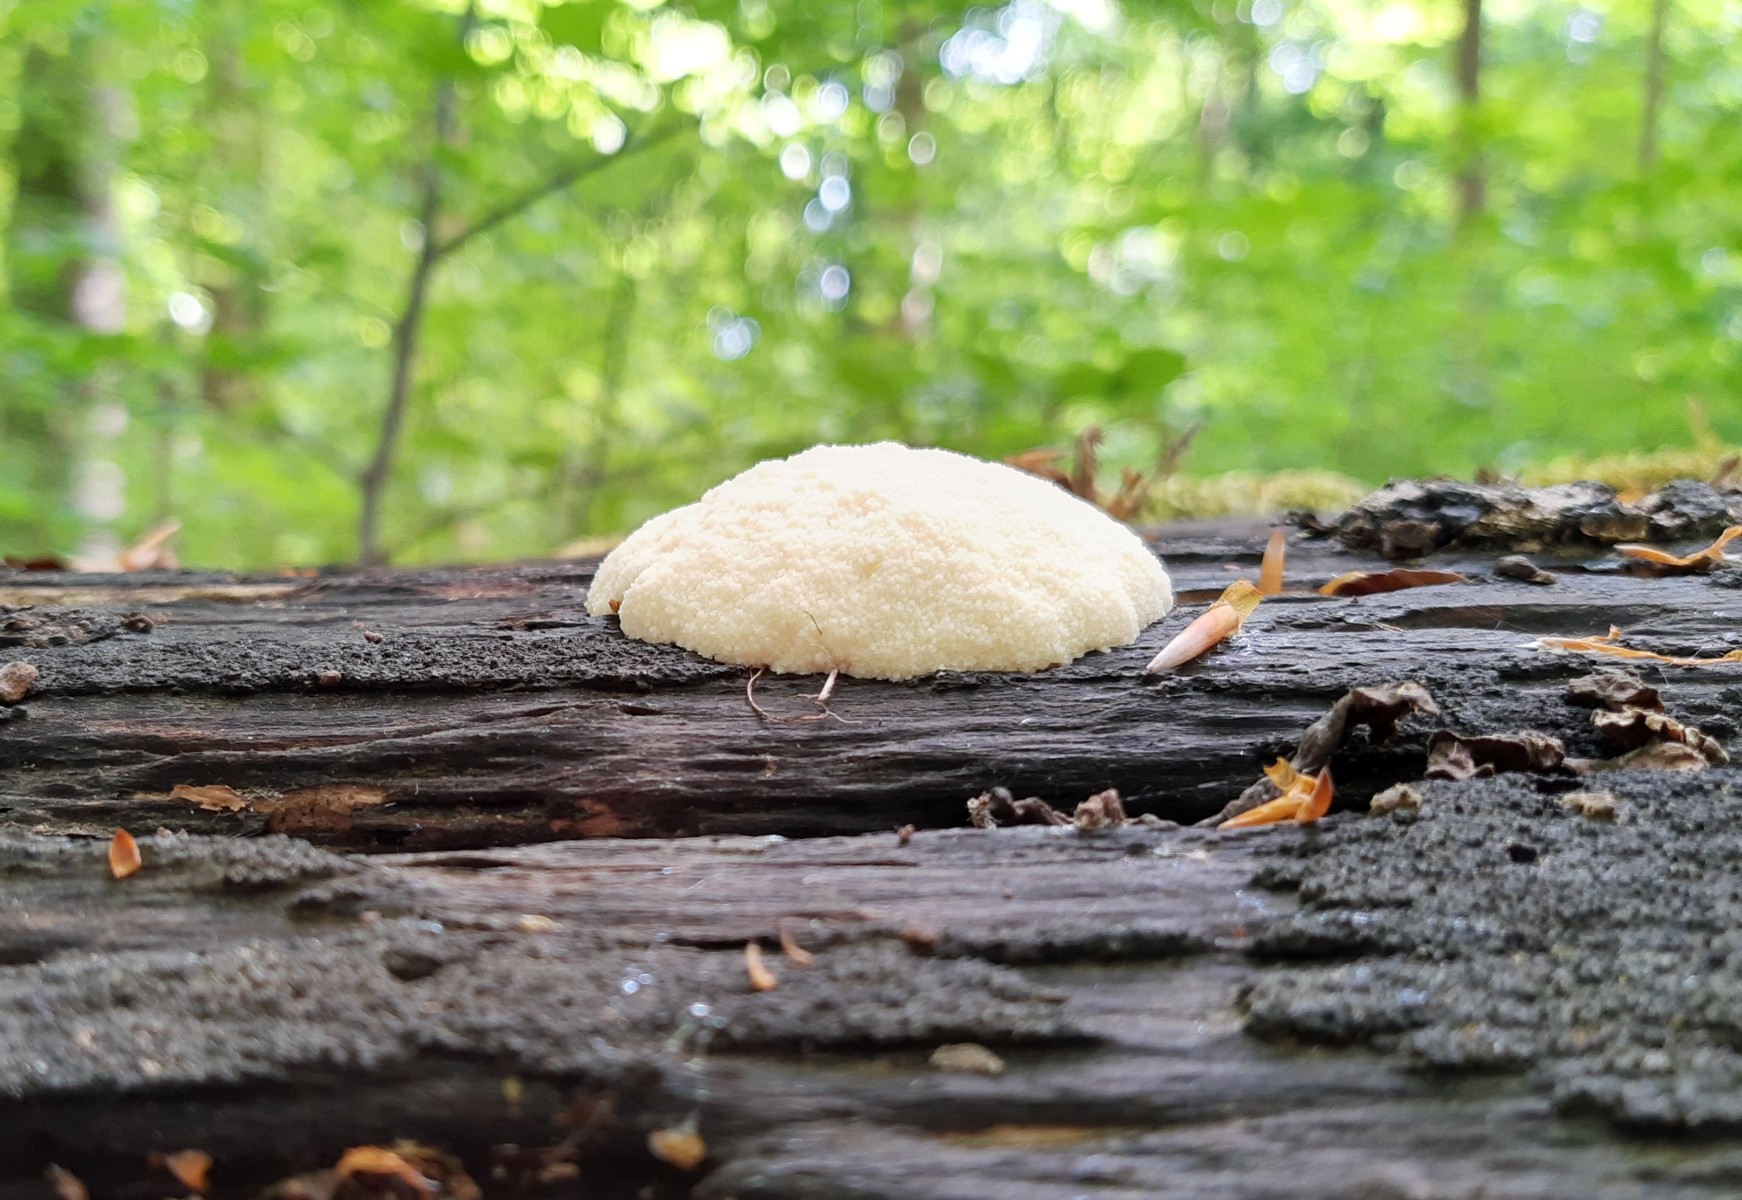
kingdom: Protozoa
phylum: Mycetozoa
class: Myxomycetes
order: Cribrariales
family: Tubiferaceae
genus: Reticularia
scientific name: Reticularia lycoperdon
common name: skinnende støvpude
